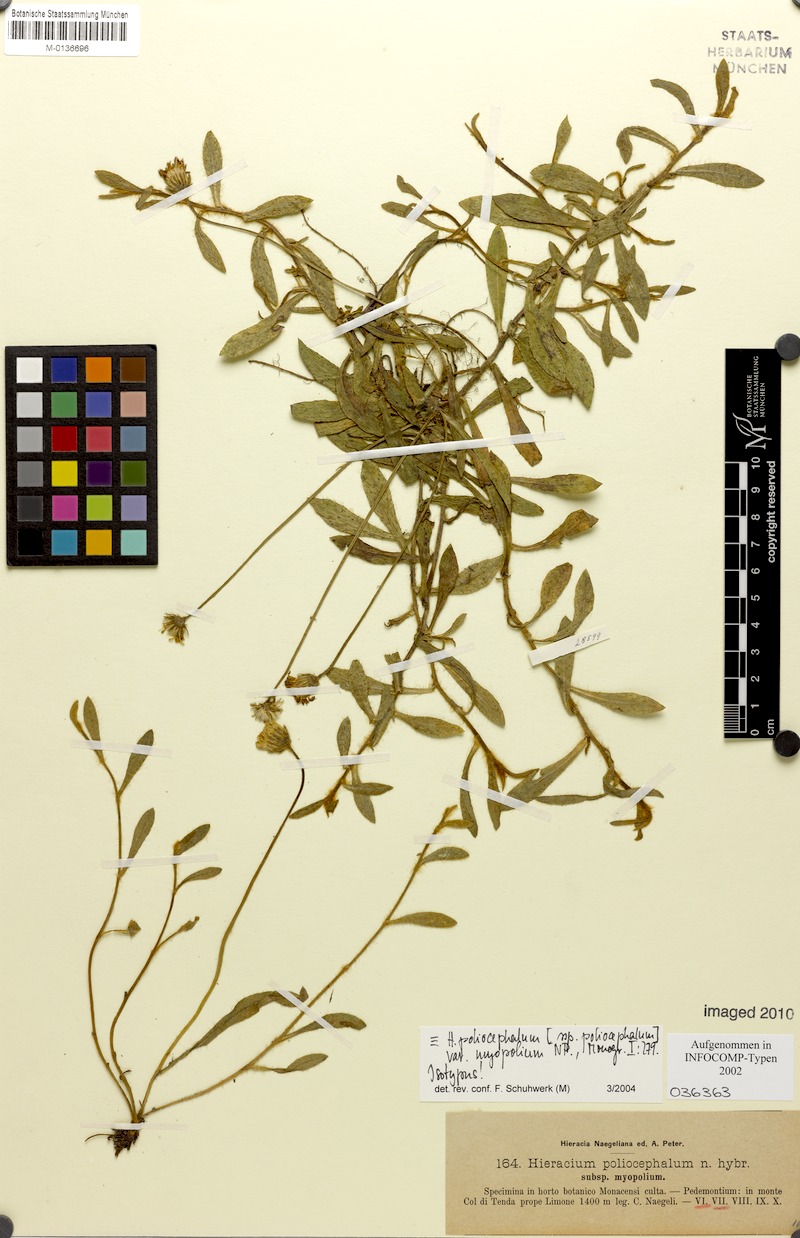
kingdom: Plantae
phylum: Tracheophyta
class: Magnoliopsida
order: Asterales
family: Asteraceae
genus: Pilosella
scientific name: Pilosella faurei
